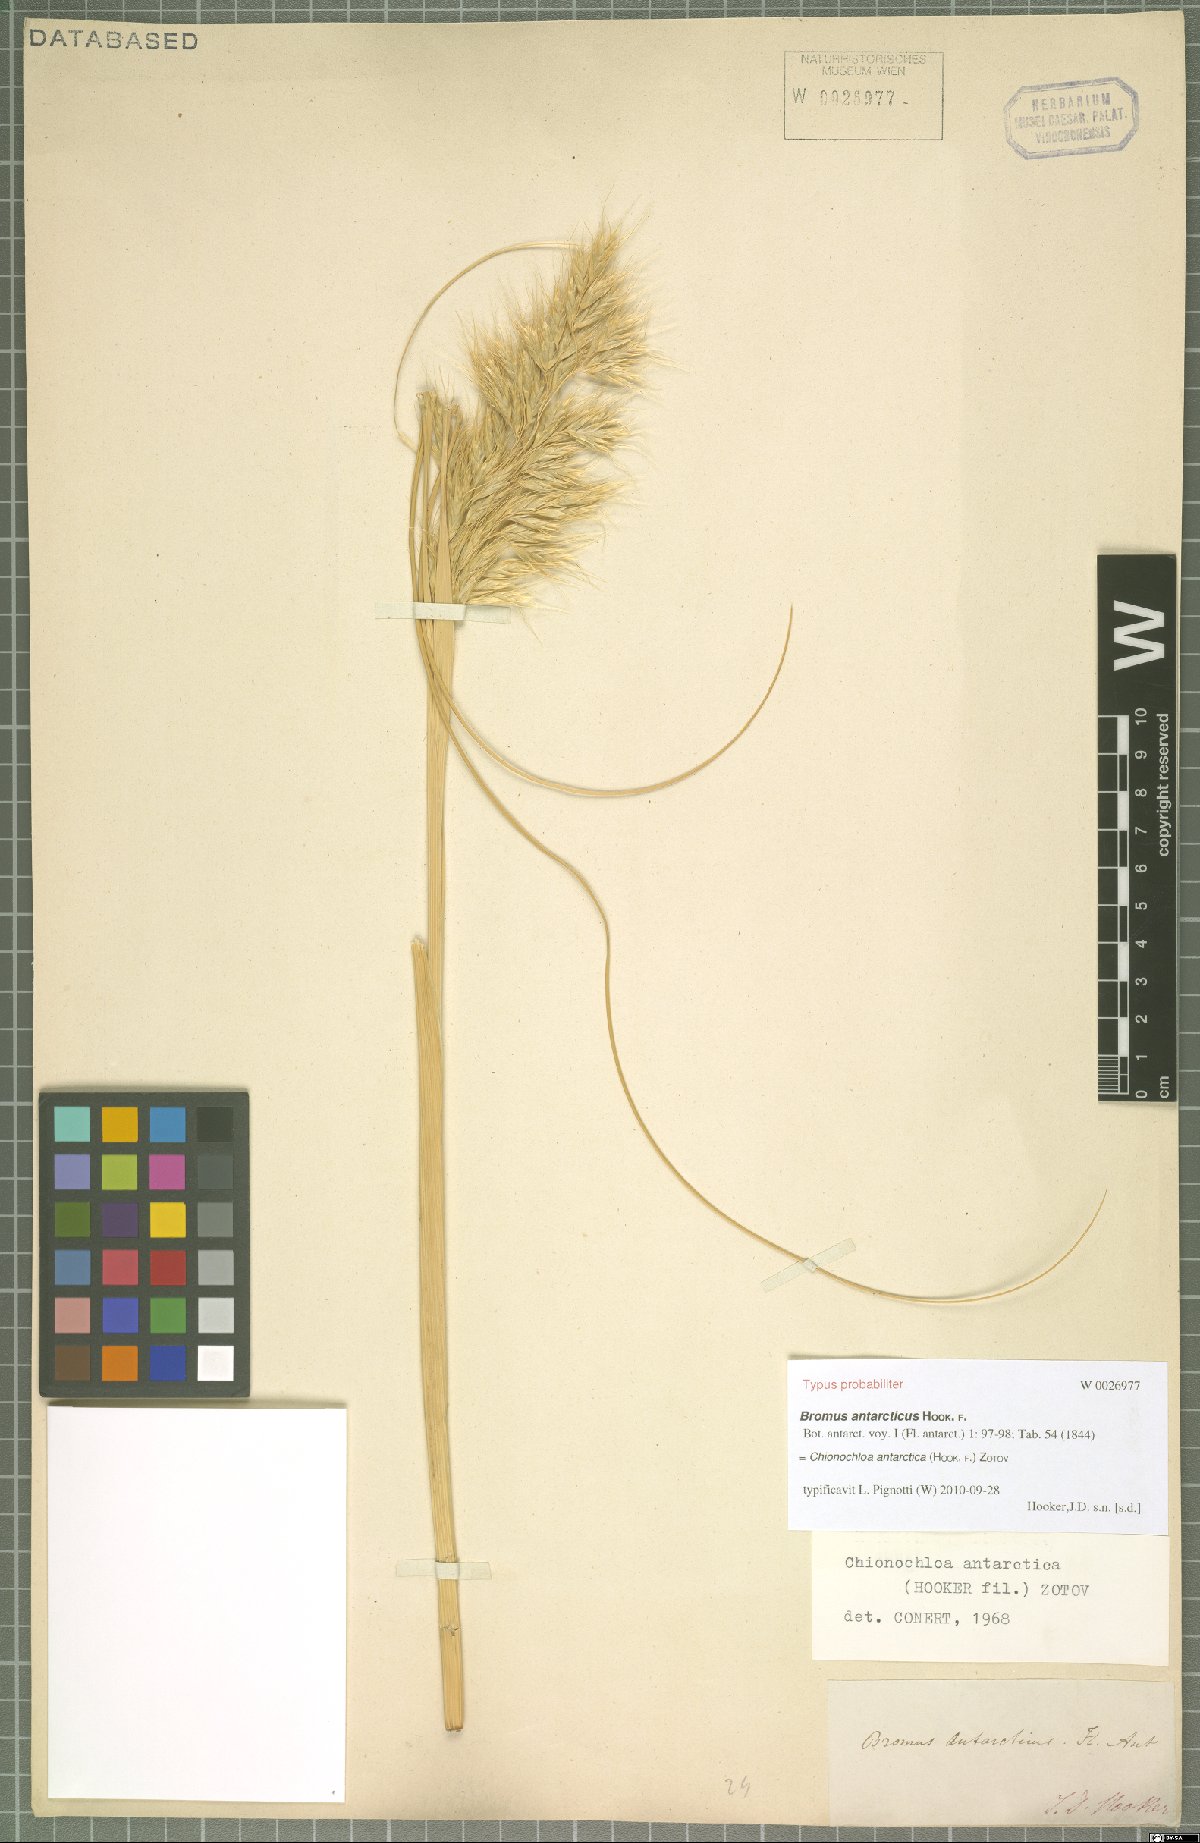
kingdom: Plantae
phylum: Tracheophyta
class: Liliopsida
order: Poales
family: Poaceae
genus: Chionochloa
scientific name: Chionochloa antarctica
